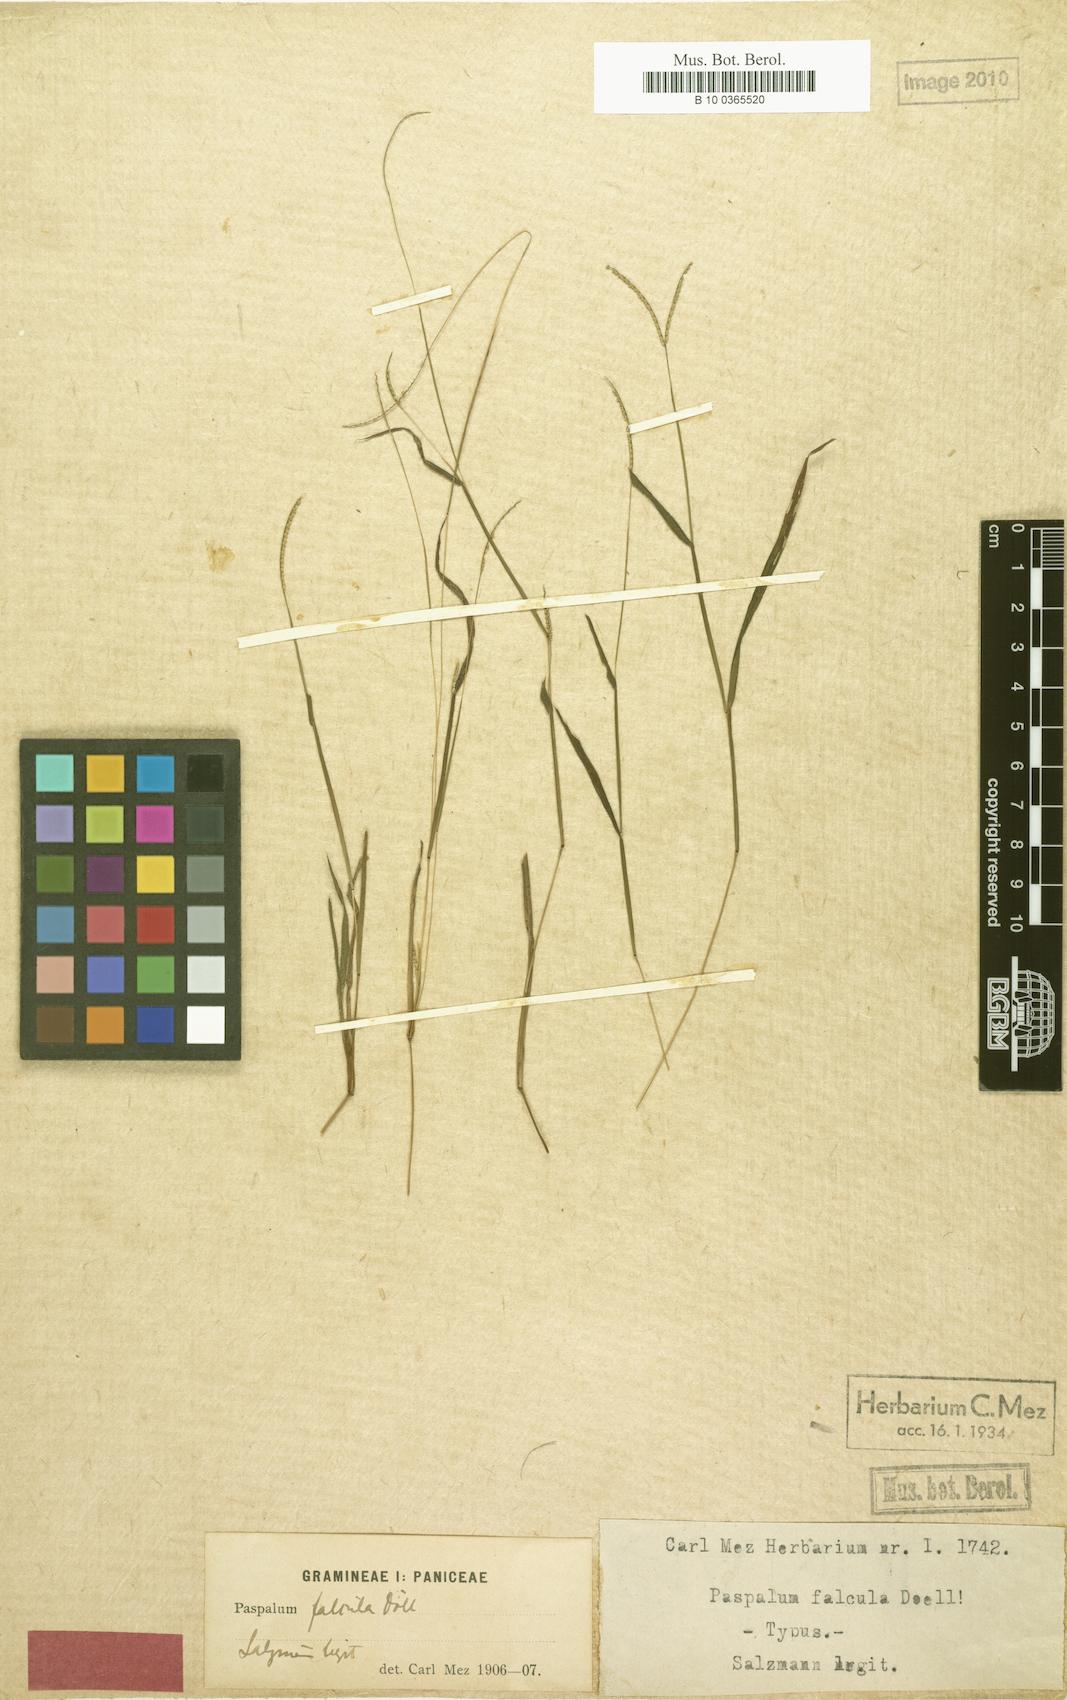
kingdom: Plantae
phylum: Tracheophyta
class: Liliopsida
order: Poales
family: Poaceae
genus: Paspalum
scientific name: Paspalum clavuliferum
